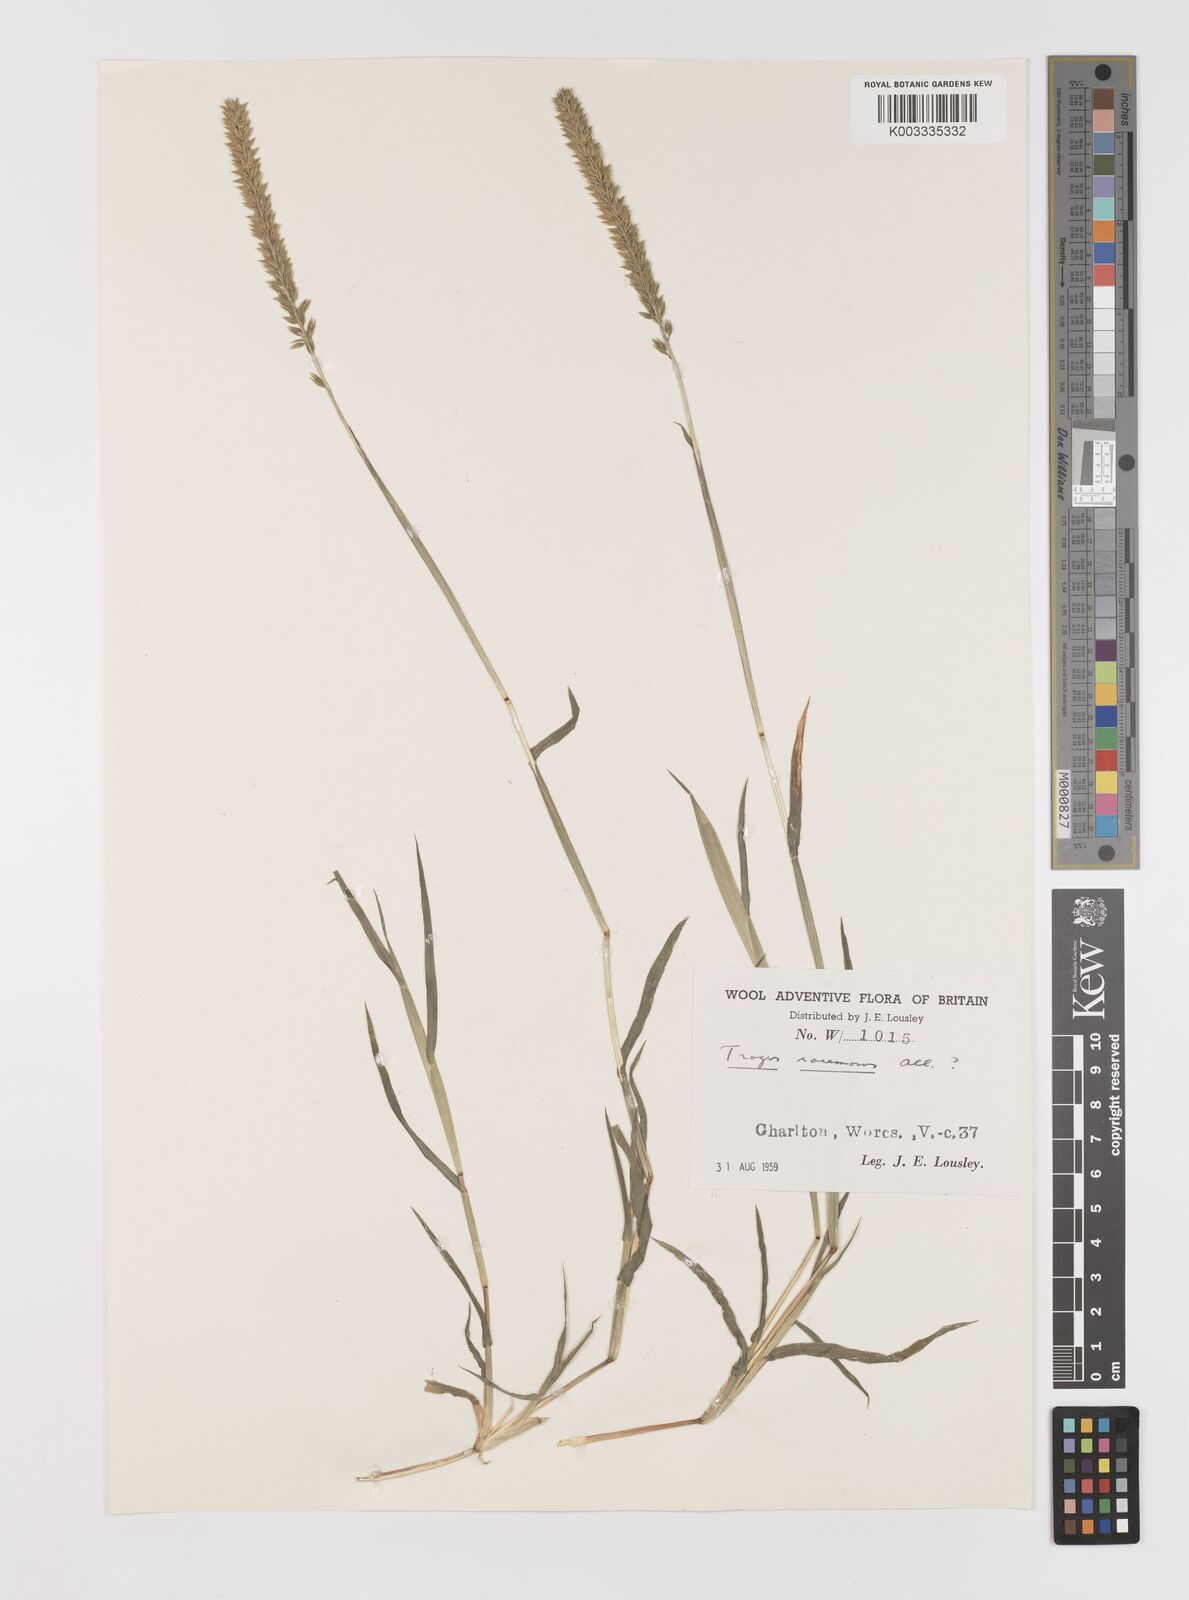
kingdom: Plantae
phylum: Tracheophyta
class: Liliopsida
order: Poales
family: Poaceae
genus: Tragus
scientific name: Tragus racemosus
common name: European bur-grass
